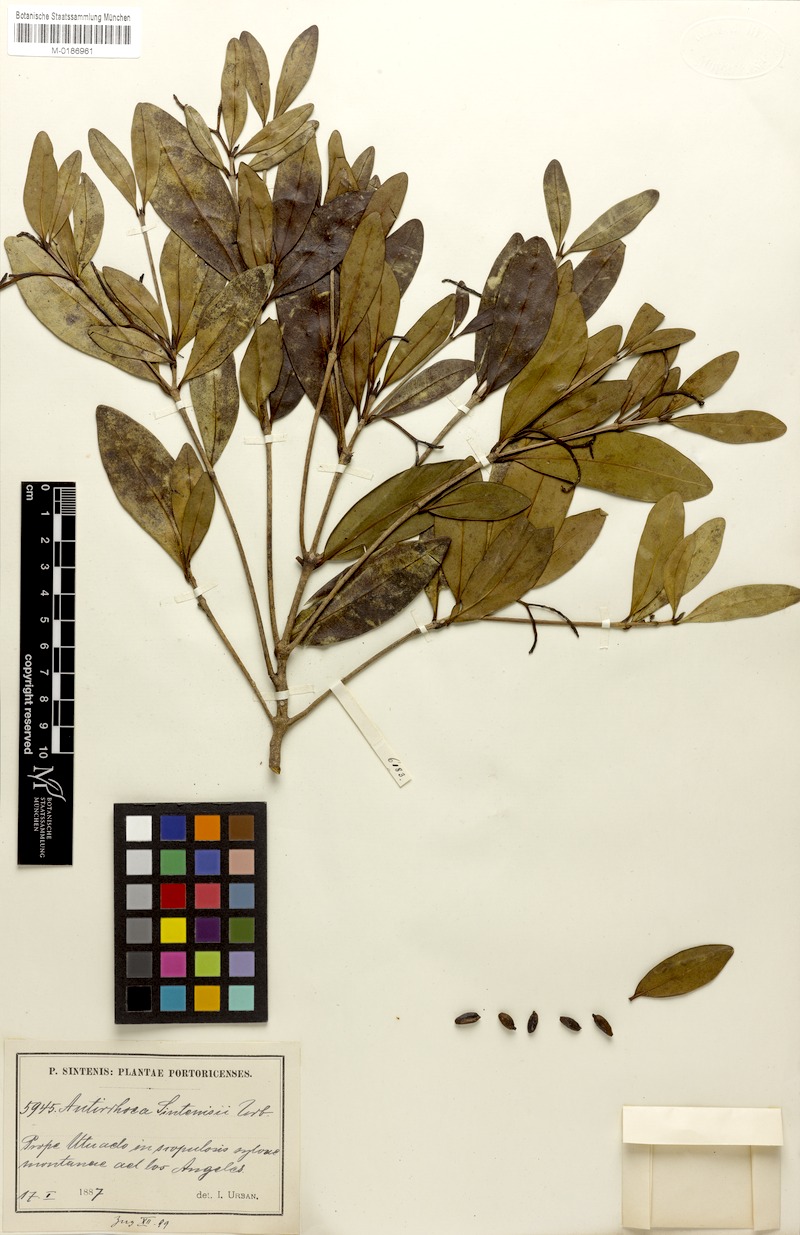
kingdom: Plantae
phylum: Tracheophyta
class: Magnoliopsida
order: Gentianales
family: Rubiaceae
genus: Stenostomum
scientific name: Stenostomum sintenisii
